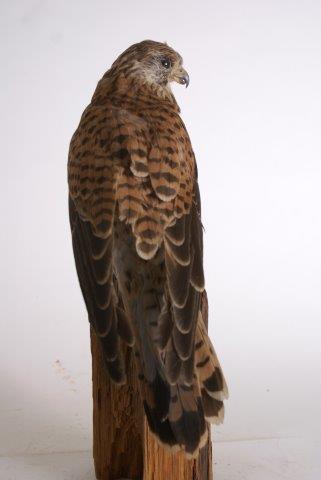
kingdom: Animalia
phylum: Chordata
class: Aves
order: Falconiformes
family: Falconidae
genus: Falco
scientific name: Falco tinnunculus
